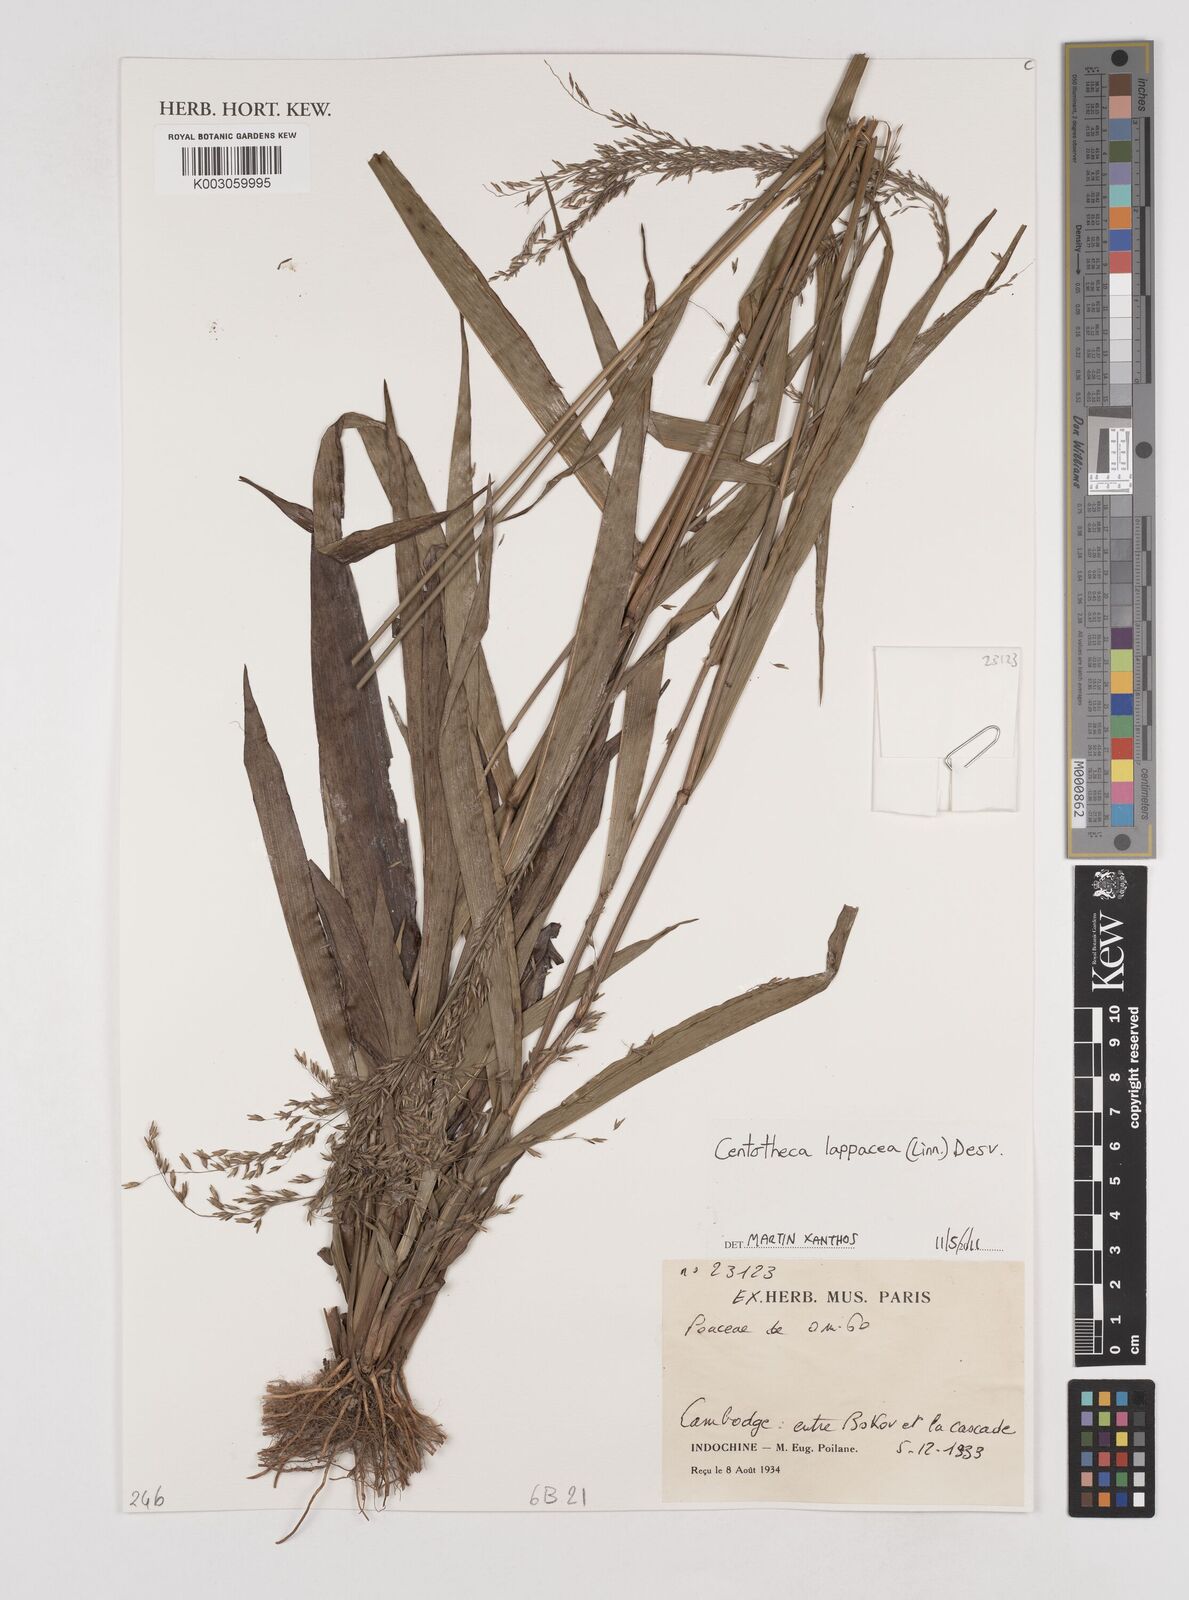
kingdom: Plantae
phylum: Tracheophyta
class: Liliopsida
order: Poales
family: Poaceae
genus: Centotheca
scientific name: Centotheca lappacea
